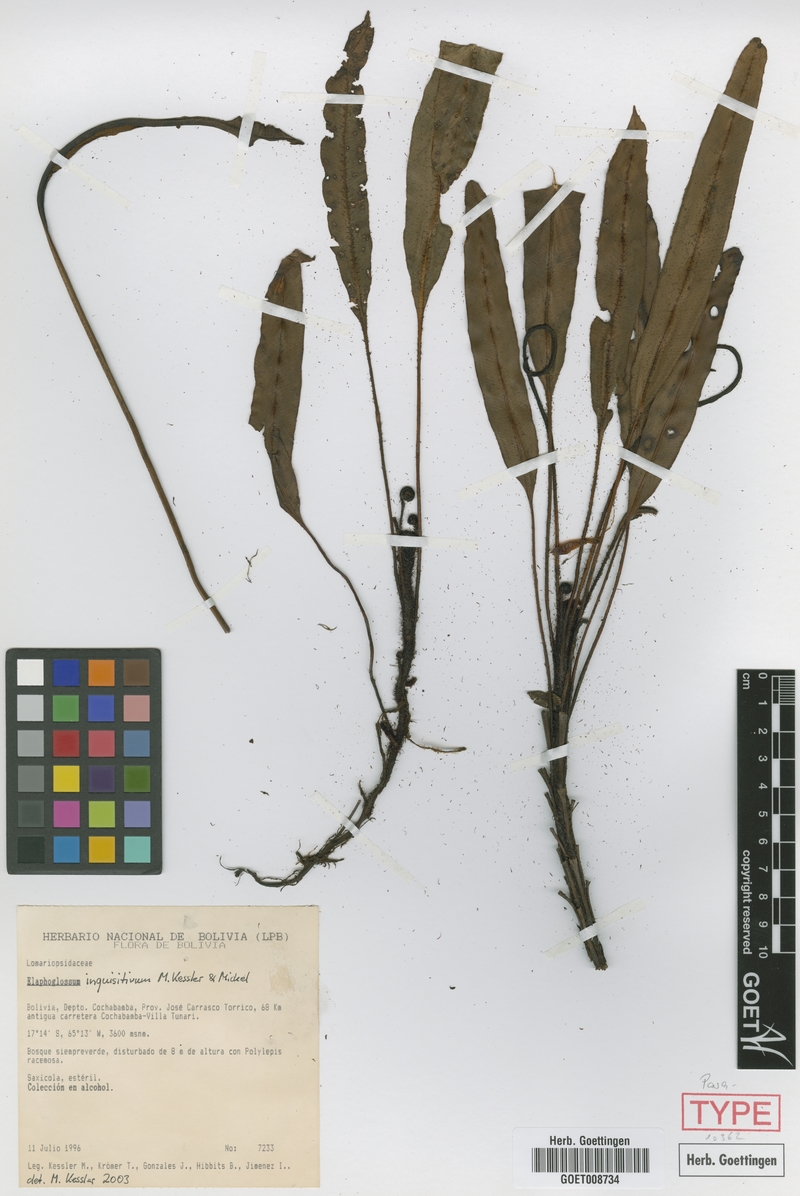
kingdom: Plantae
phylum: Tracheophyta
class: Polypodiopsida
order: Polypodiales
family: Dryopteridaceae
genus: Elaphoglossum
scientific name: Elaphoglossum inquisitivum
